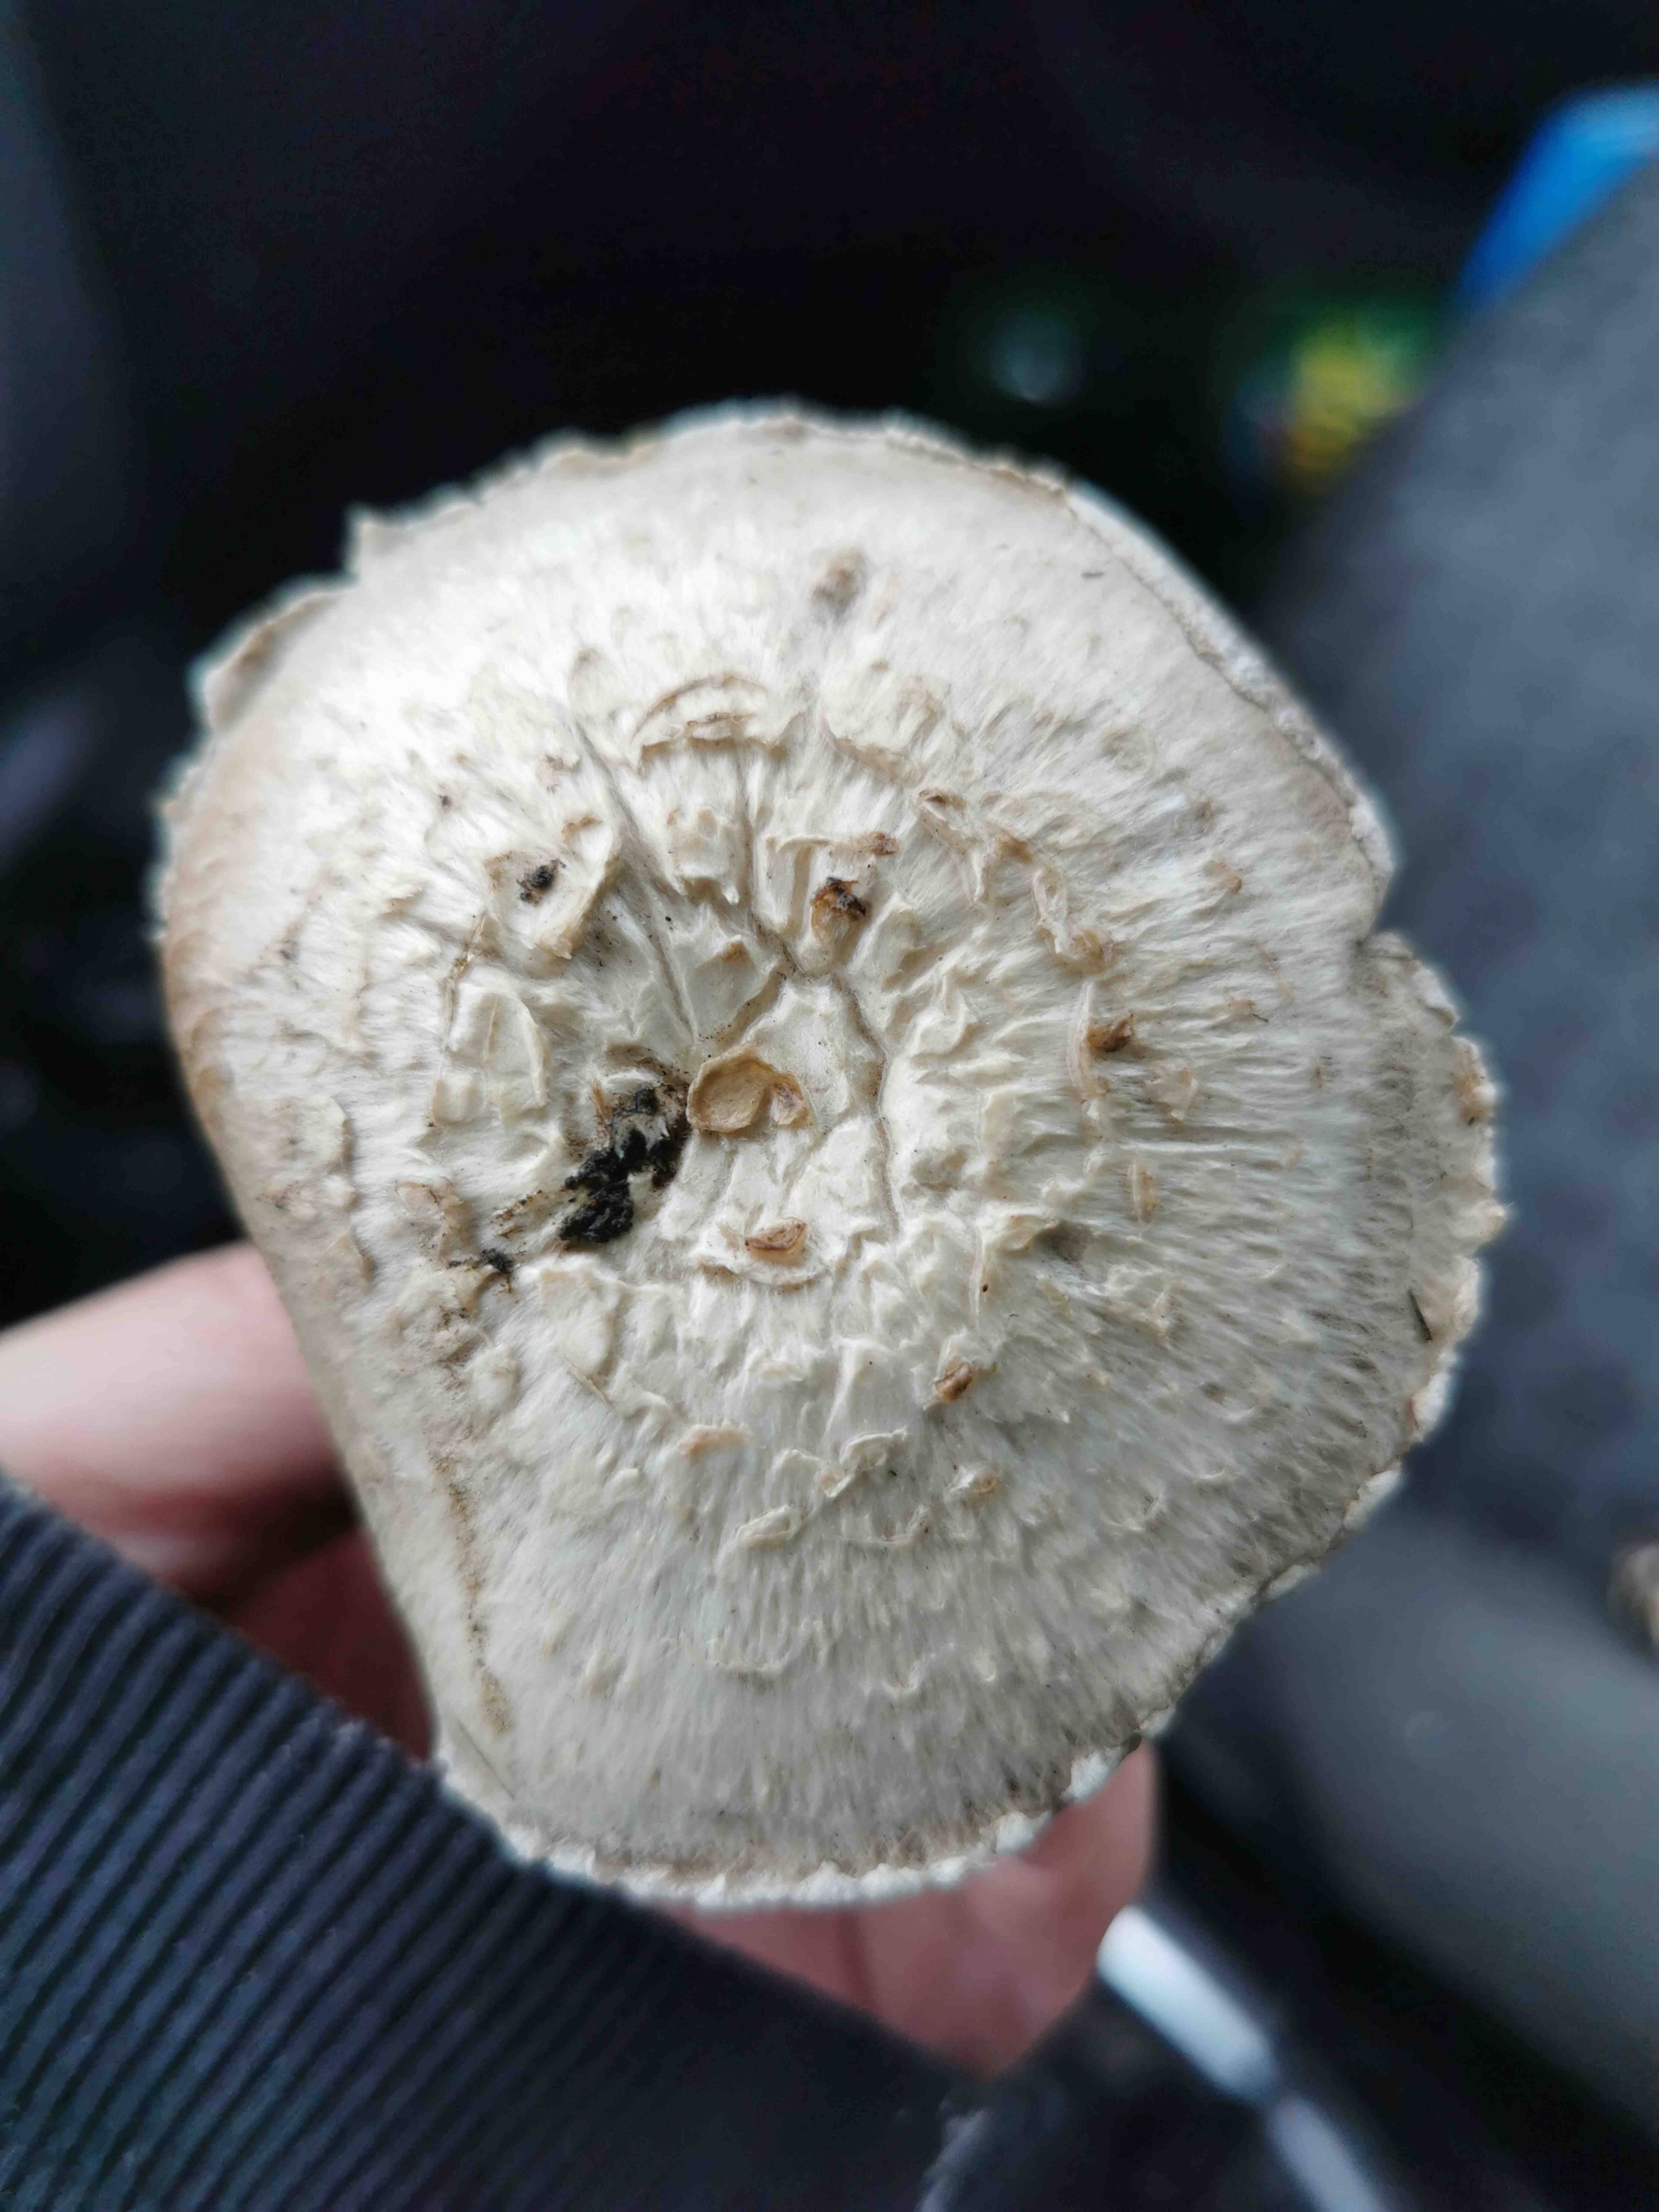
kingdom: Fungi
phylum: Basidiomycota
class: Agaricomycetes
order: Agaricales
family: Agaricaceae
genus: Agaricus
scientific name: Agaricus campestris
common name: mark-champignon
